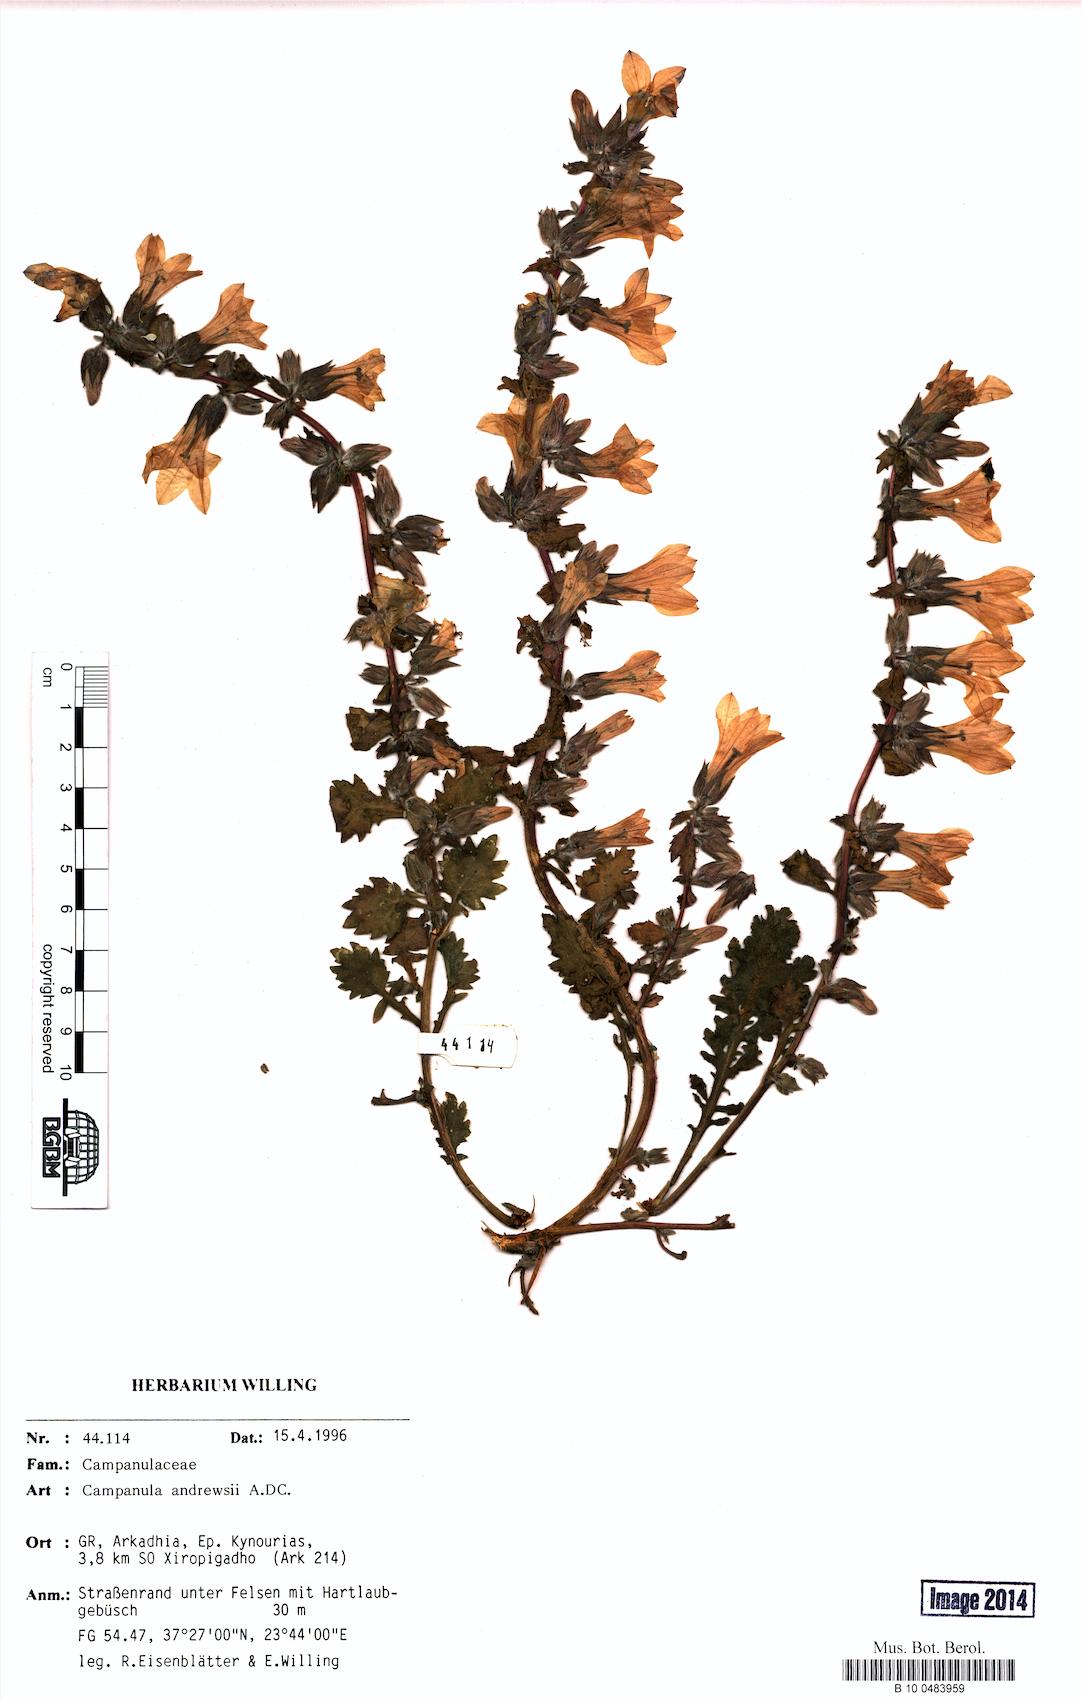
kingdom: Plantae
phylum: Tracheophyta
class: Magnoliopsida
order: Asterales
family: Campanulaceae
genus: Campanula
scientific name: Campanula andrewsii
